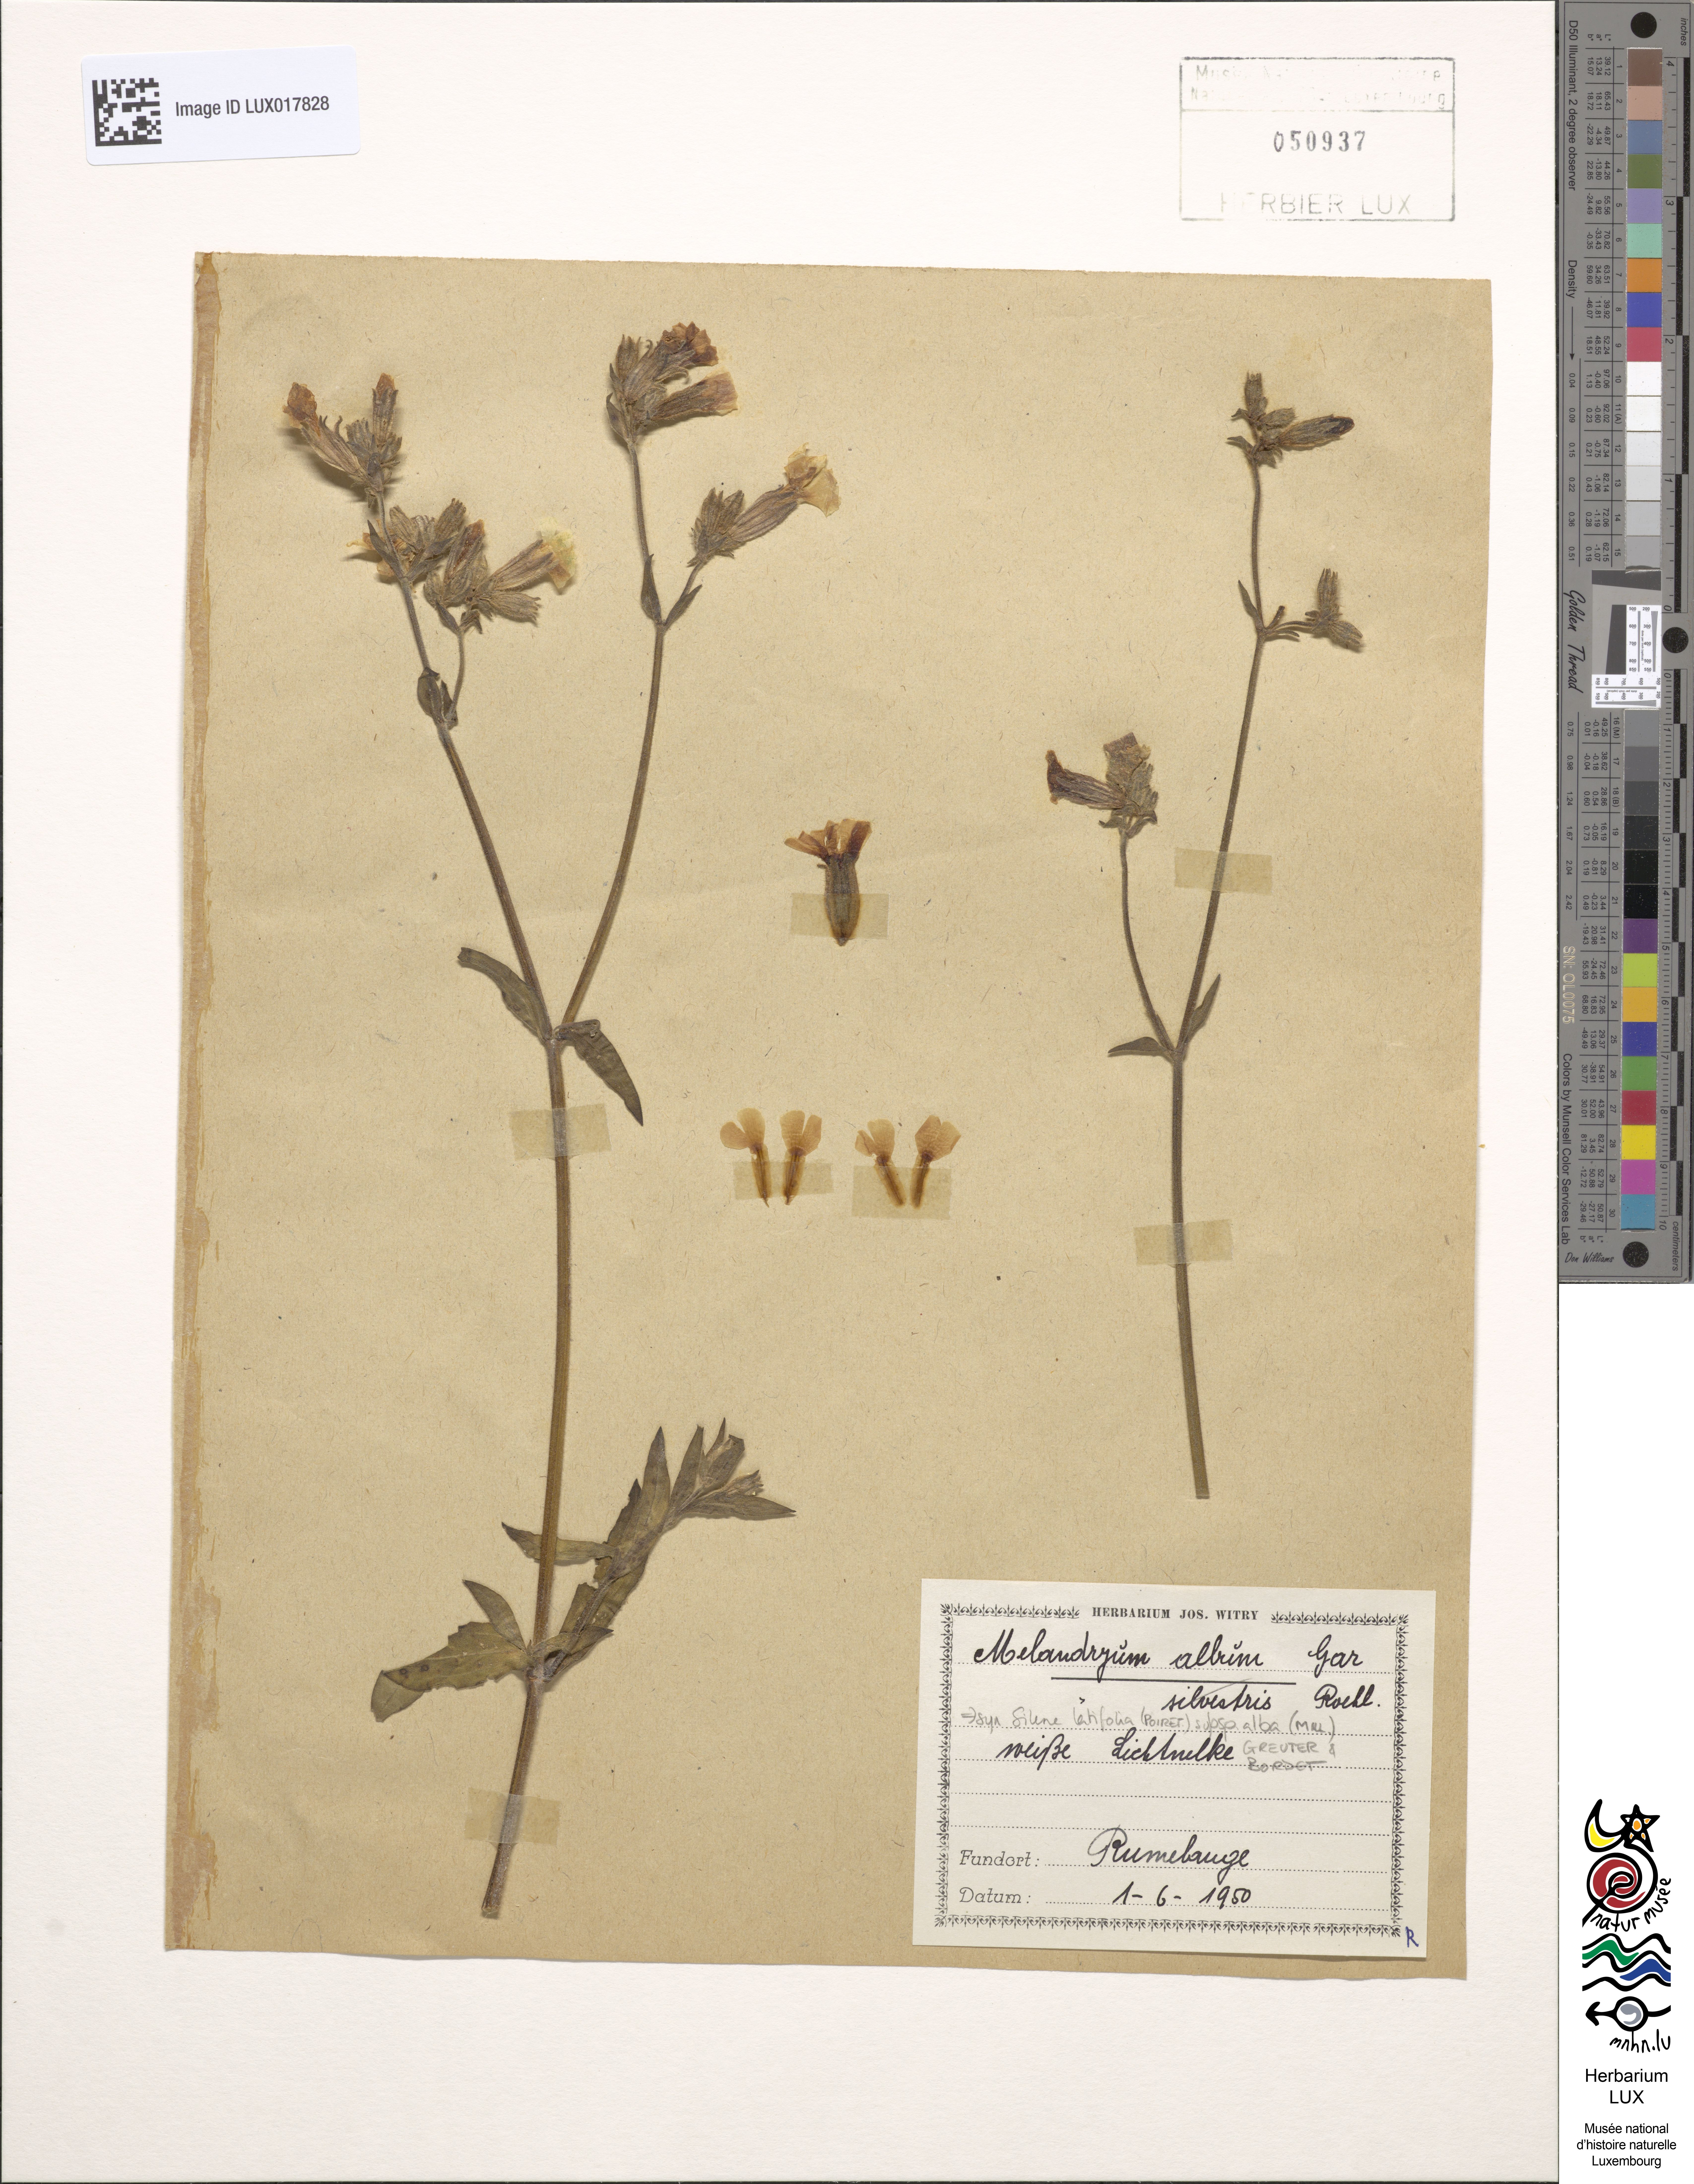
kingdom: Plantae
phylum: Tracheophyta
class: Magnoliopsida
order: Caryophyllales
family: Caryophyllaceae
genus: Silene
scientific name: Silene latifolia
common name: White campion
